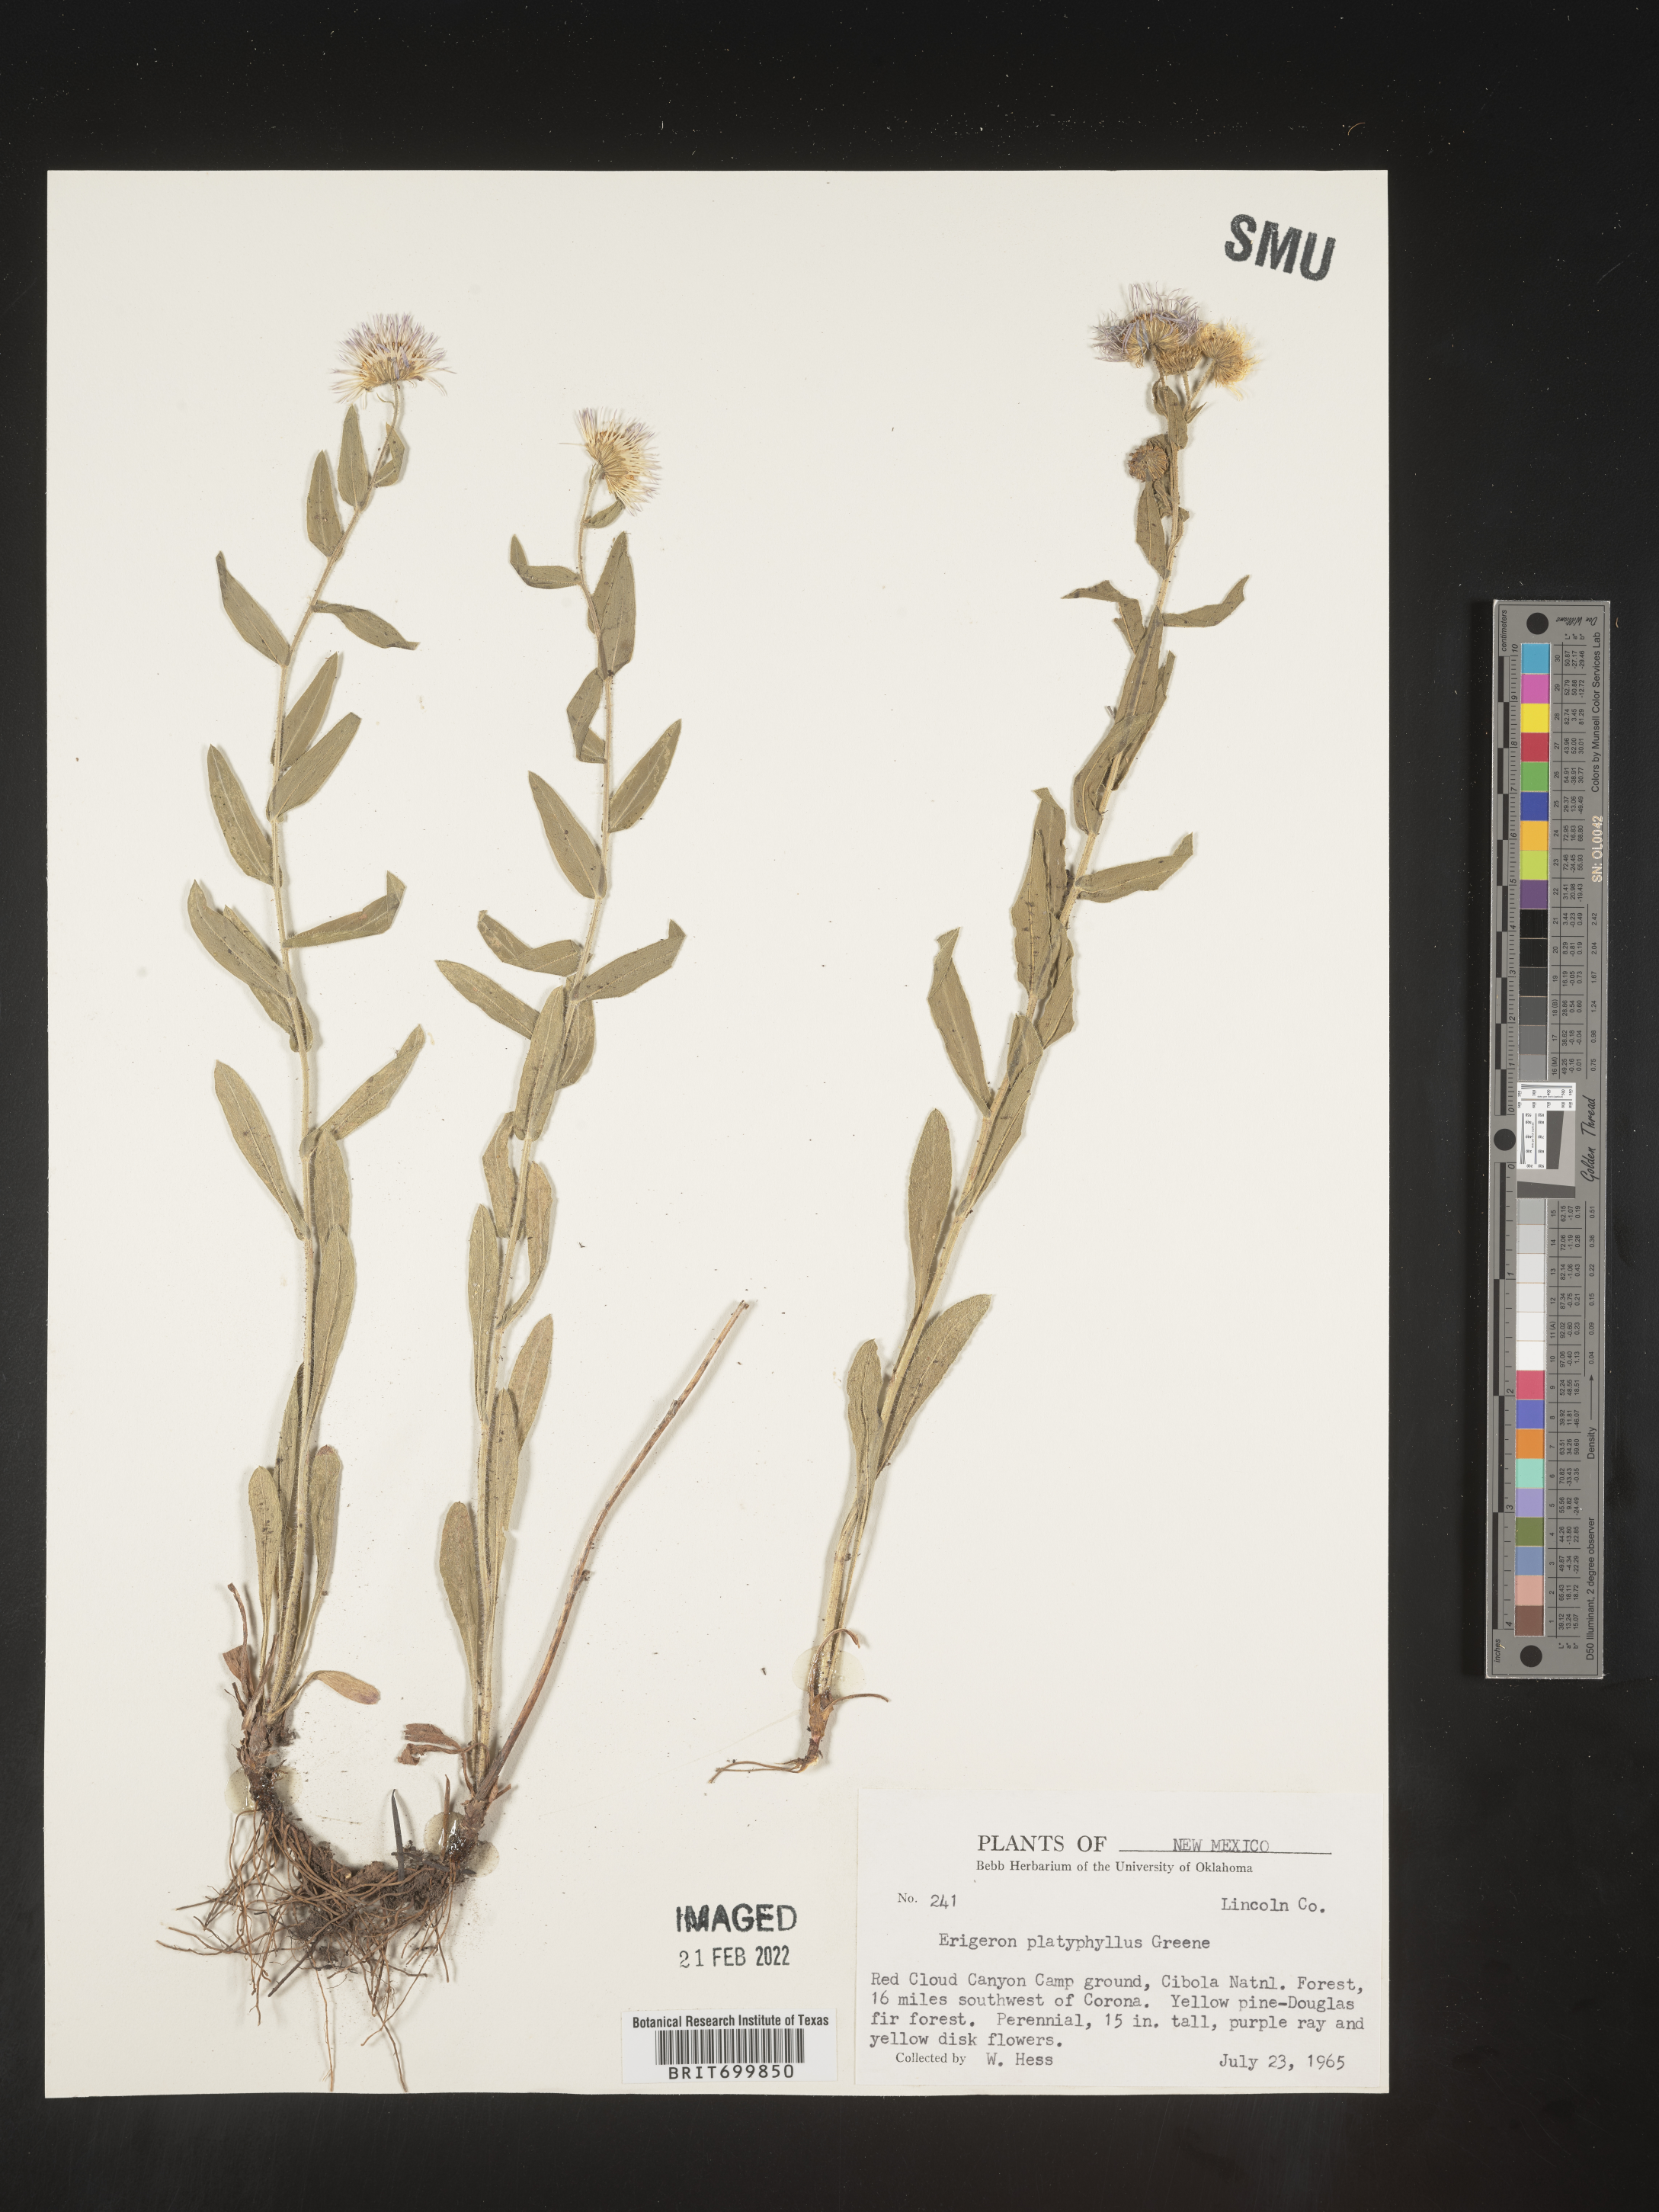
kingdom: Plantae
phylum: Tracheophyta
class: Magnoliopsida
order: Asterales
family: Asteraceae
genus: Erigeron
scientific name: Erigeron vreelandii
